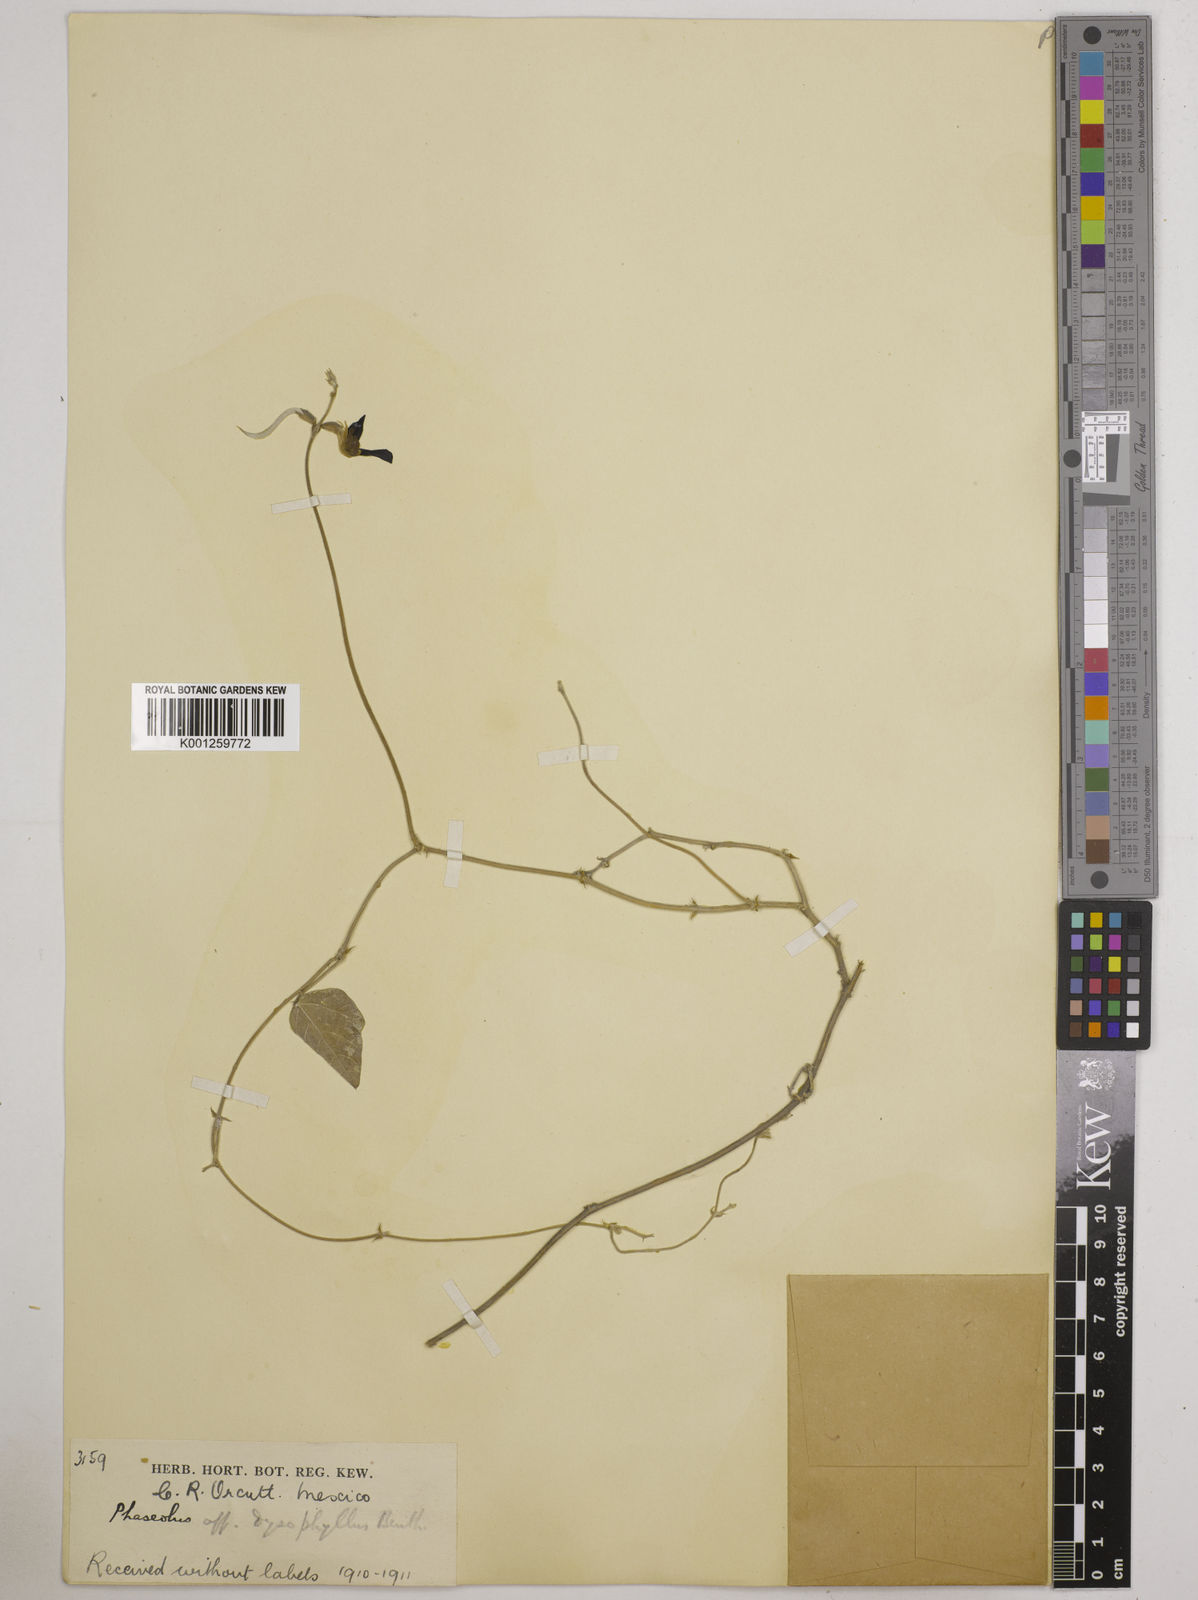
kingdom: Plantae
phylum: Tracheophyta
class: Magnoliopsida
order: Fabales
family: Fabaceae
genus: Macroptilium
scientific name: Macroptilium atropurpureum
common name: Purple bushbean
